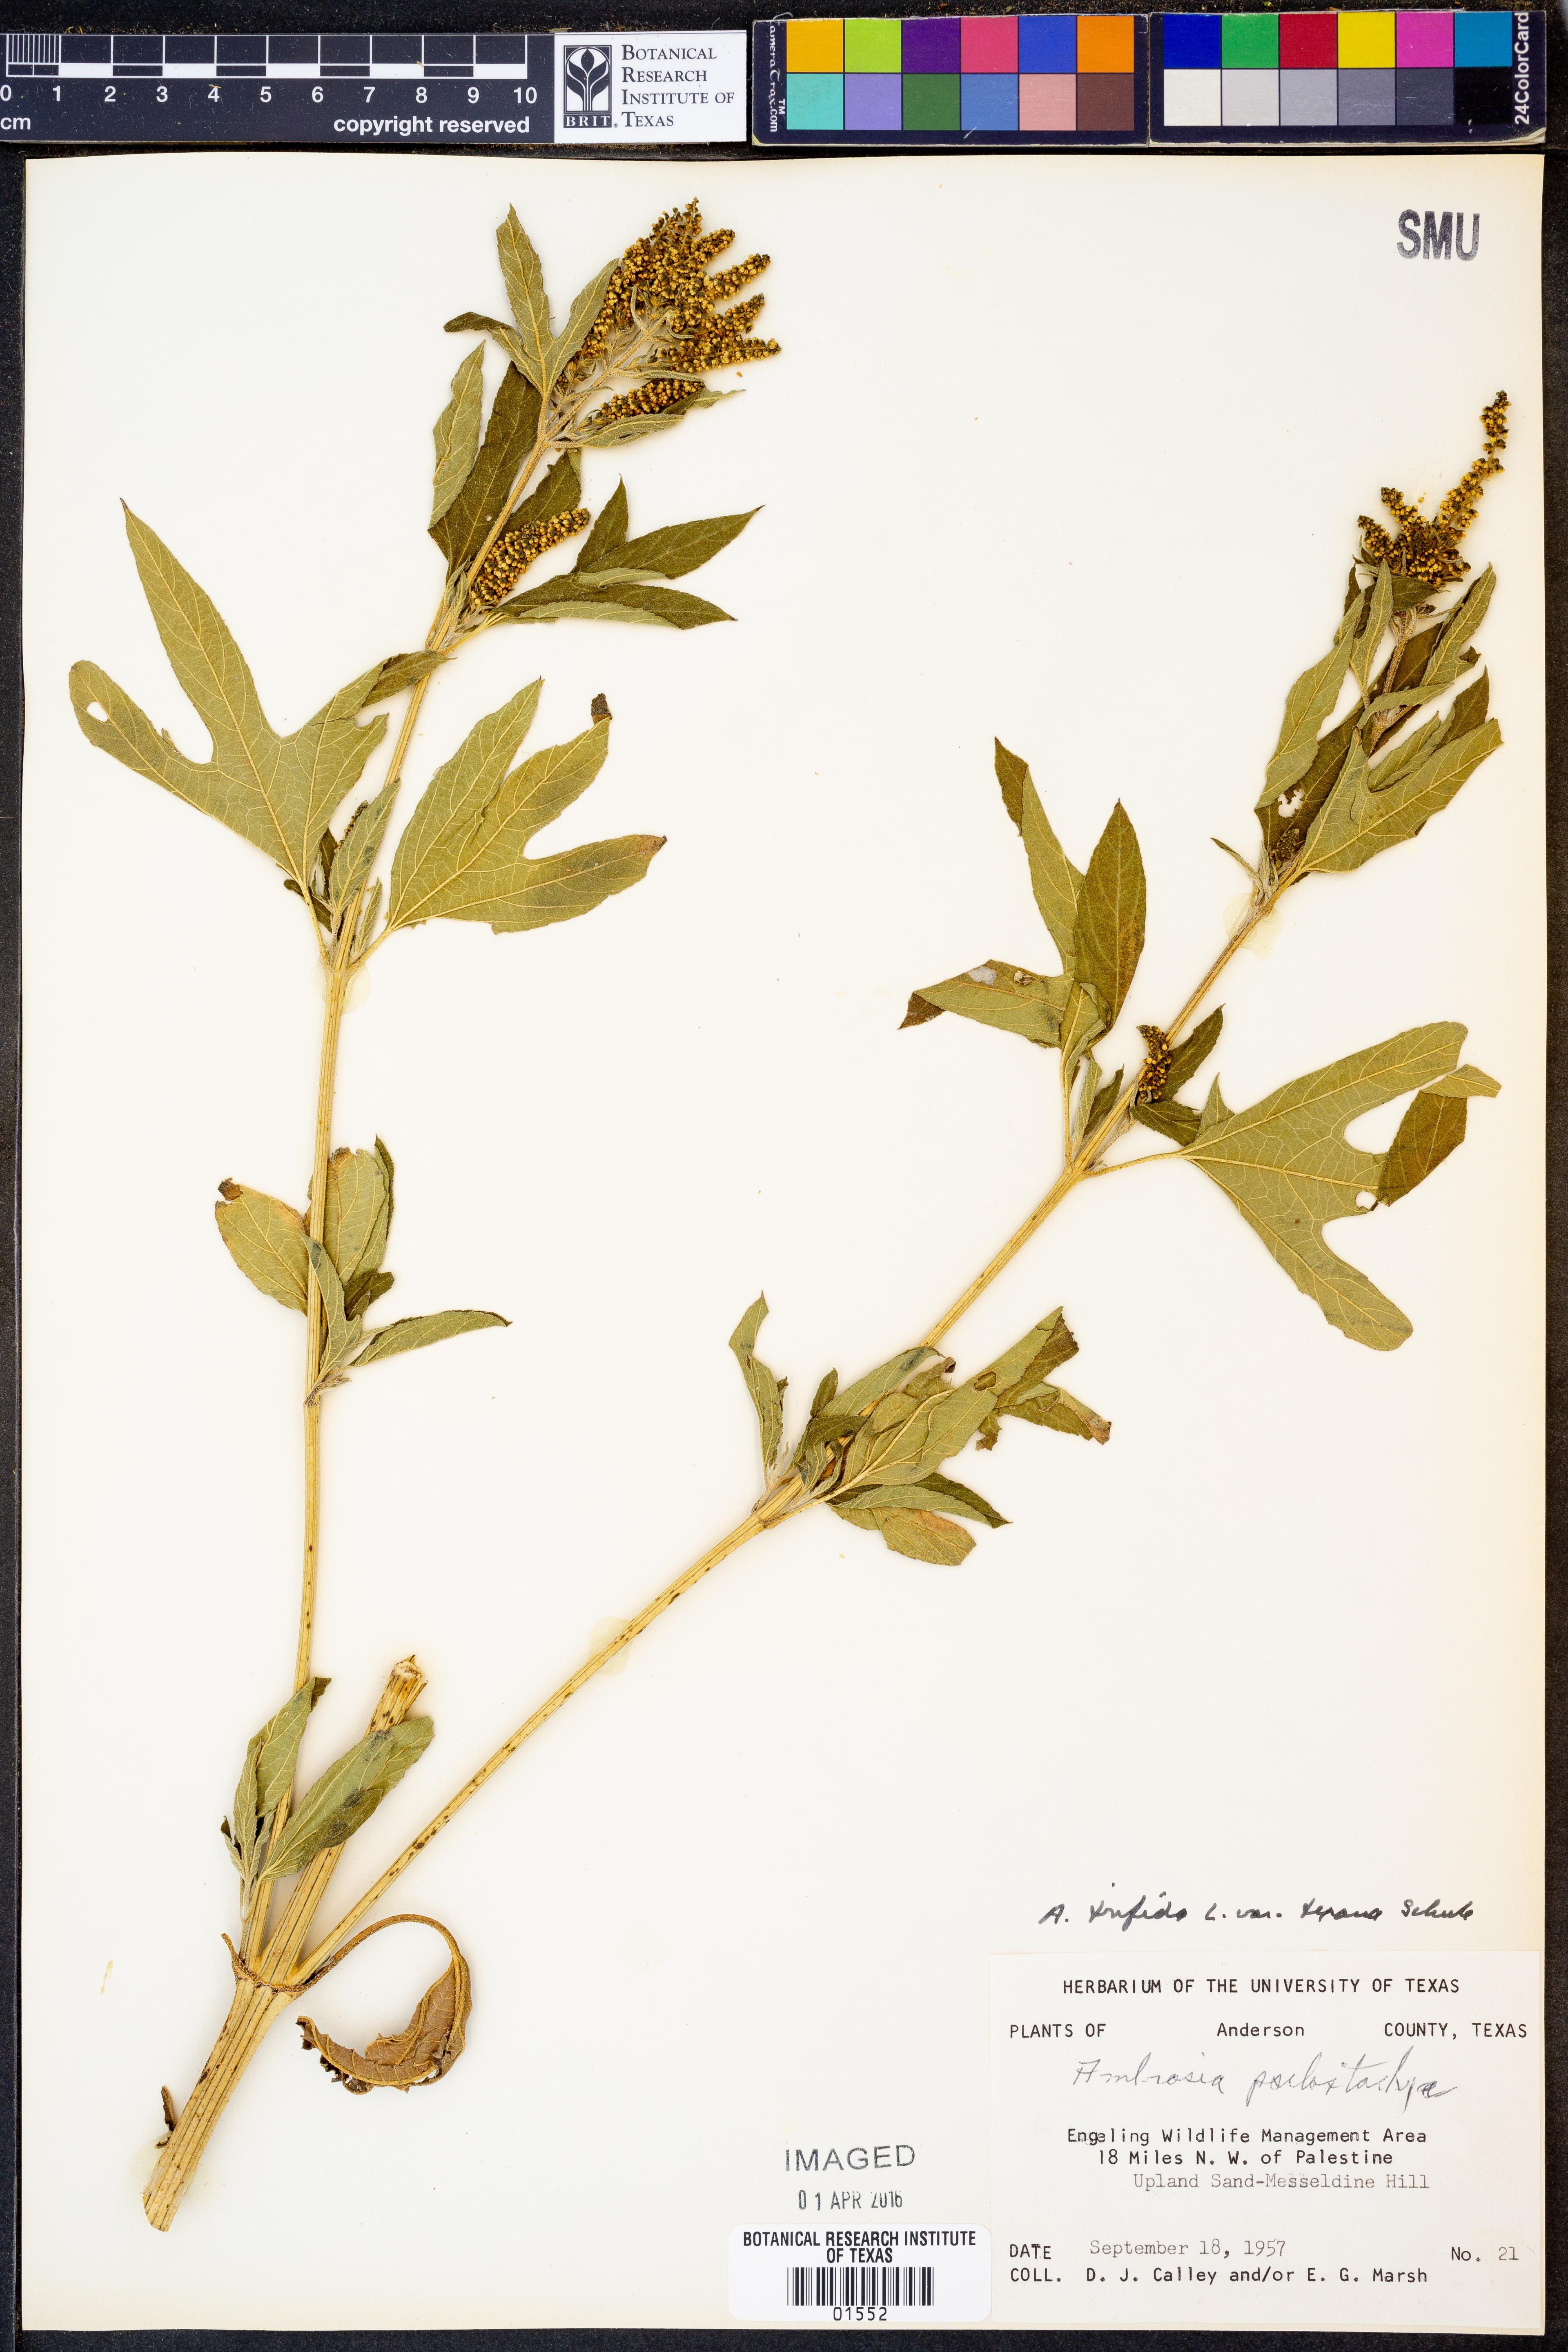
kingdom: Plantae
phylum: Tracheophyta
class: Magnoliopsida
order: Asterales
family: Asteraceae
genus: Ambrosia
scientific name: Ambrosia trifida
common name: Giant ragweed
